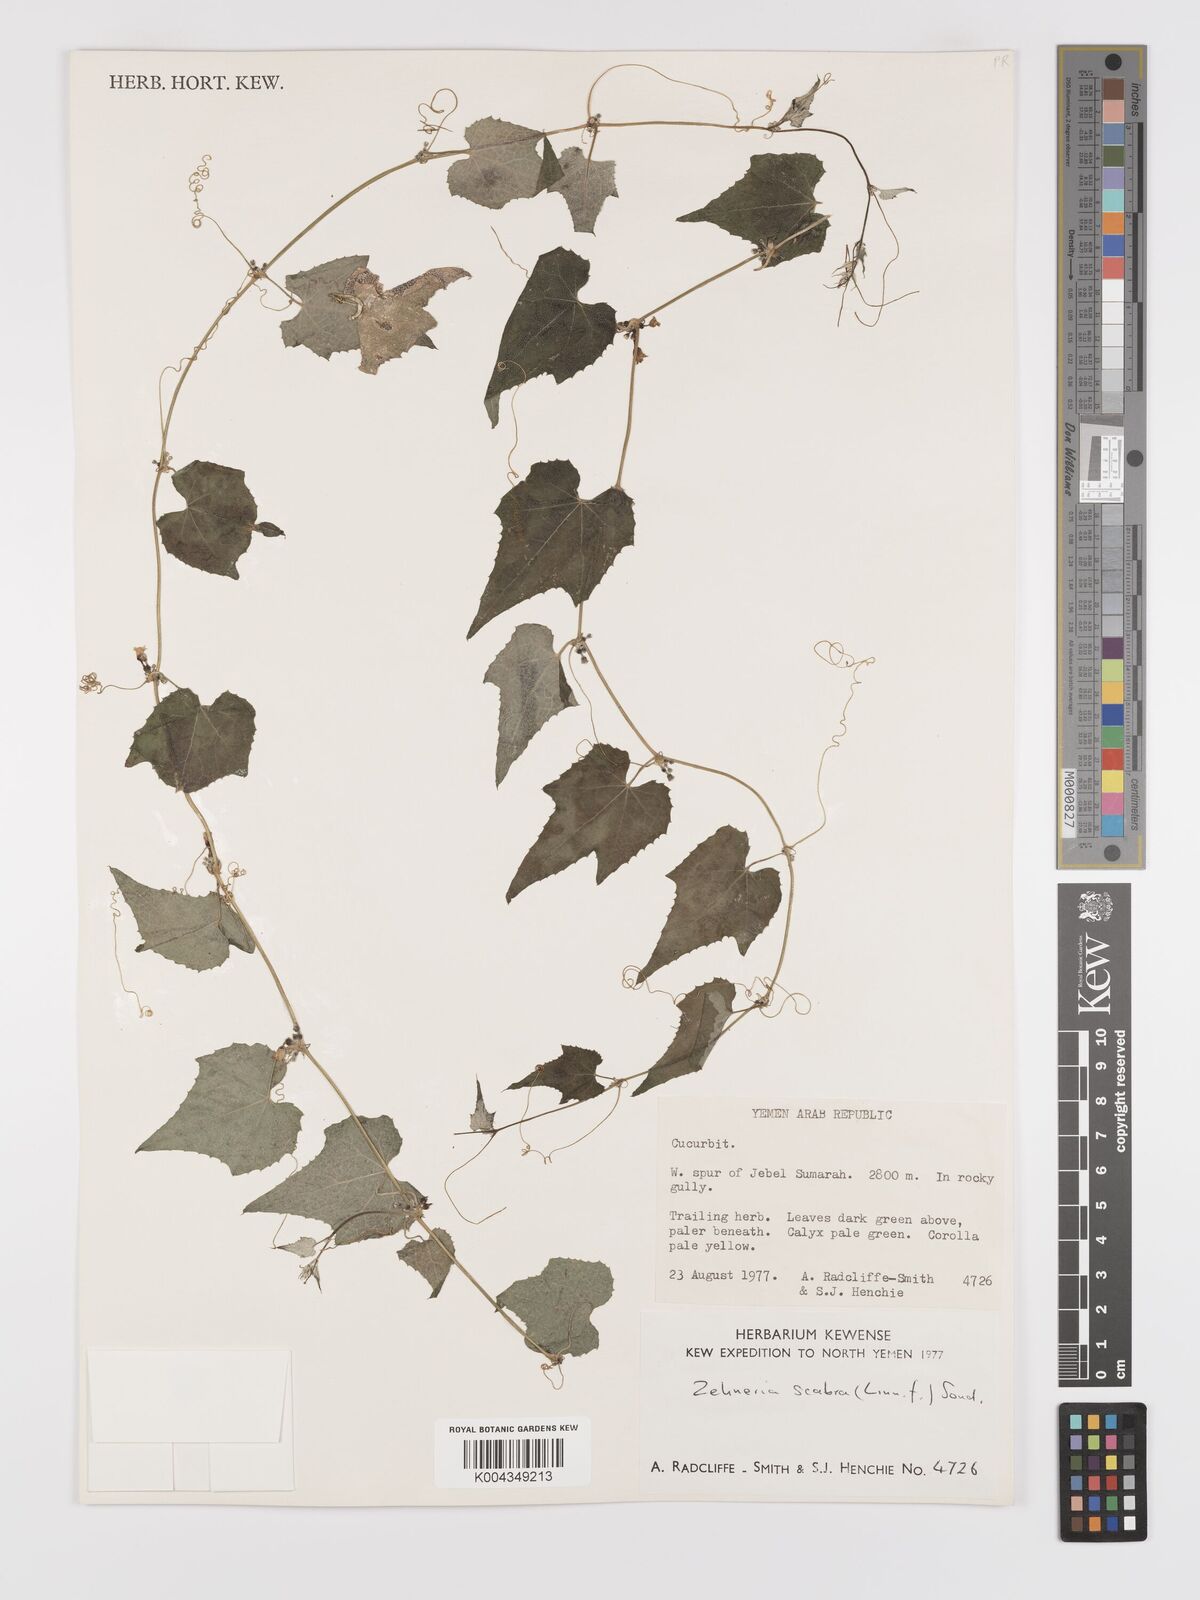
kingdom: Plantae
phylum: Tracheophyta
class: Magnoliopsida
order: Cucurbitales
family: Cucurbitaceae
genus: Zehneria
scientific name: Zehneria scabra
